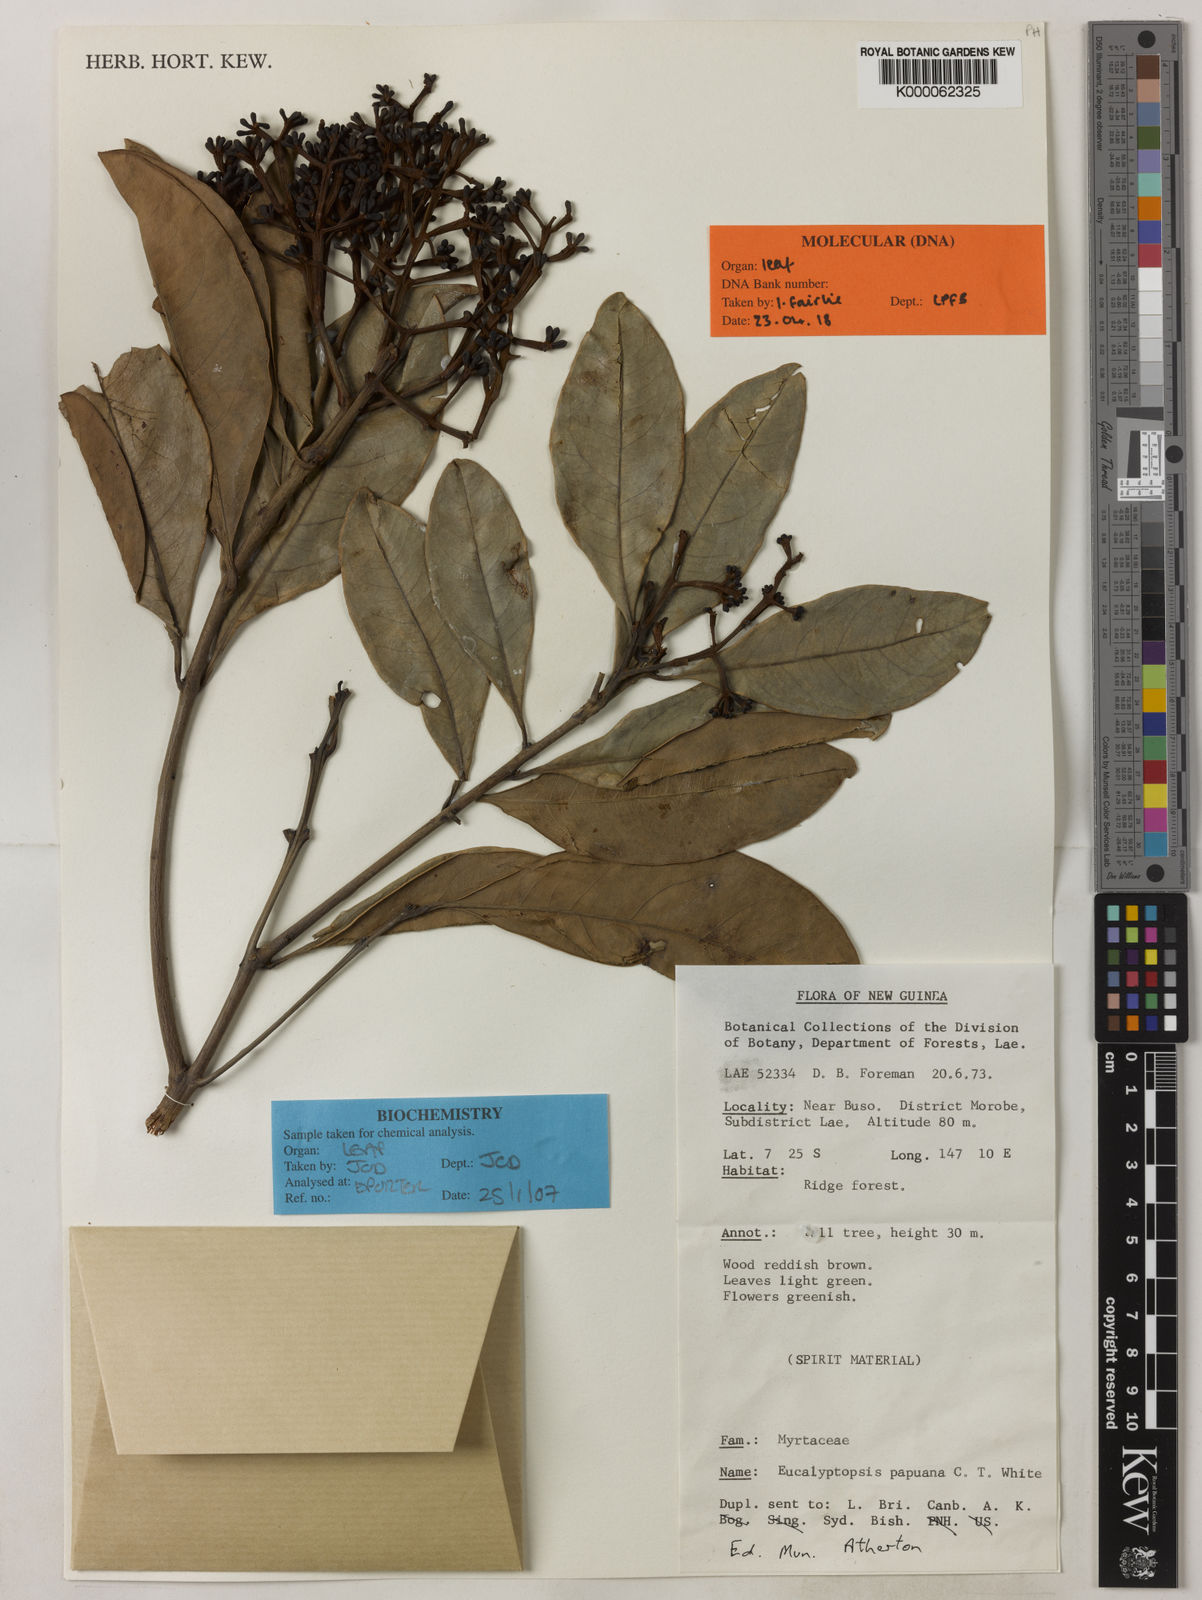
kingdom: Plantae
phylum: Tracheophyta
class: Magnoliopsida
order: Myrtales
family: Myrtaceae
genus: Eucalyptopsis
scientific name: Eucalyptopsis papuana
